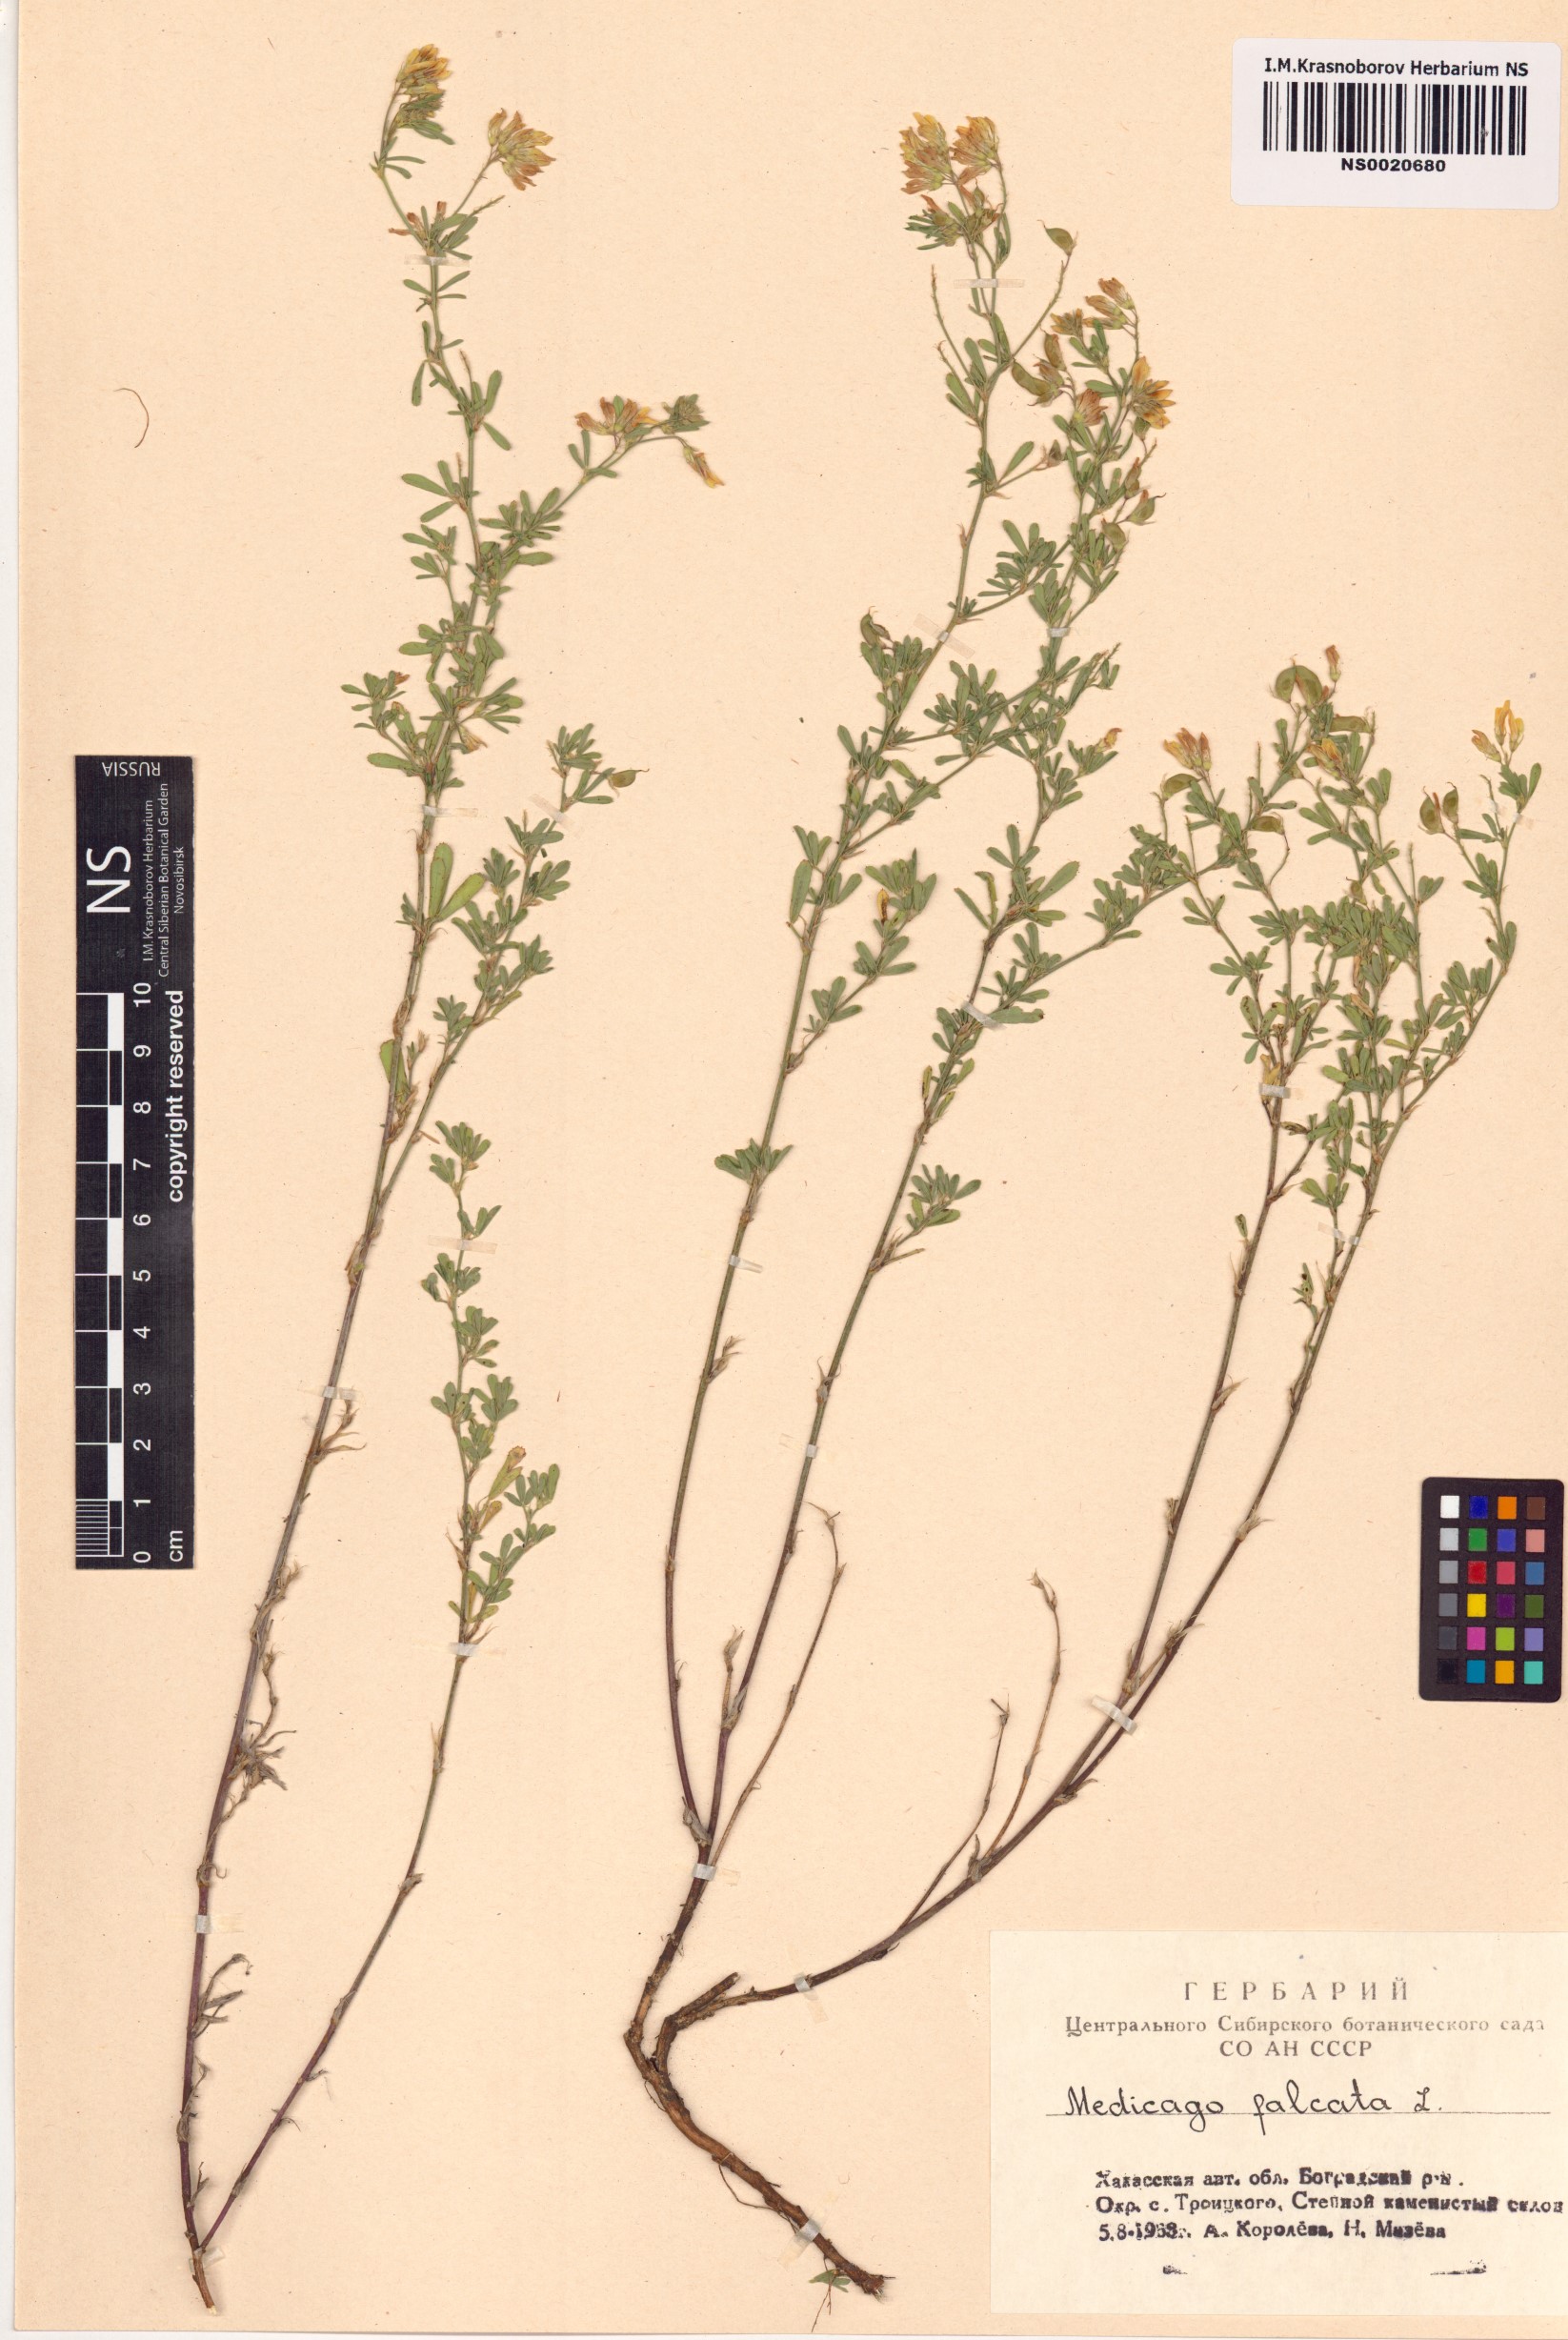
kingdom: Plantae
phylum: Tracheophyta
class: Magnoliopsida
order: Fabales
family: Fabaceae
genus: Medicago
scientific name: Medicago falcata
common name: Sickle medick
